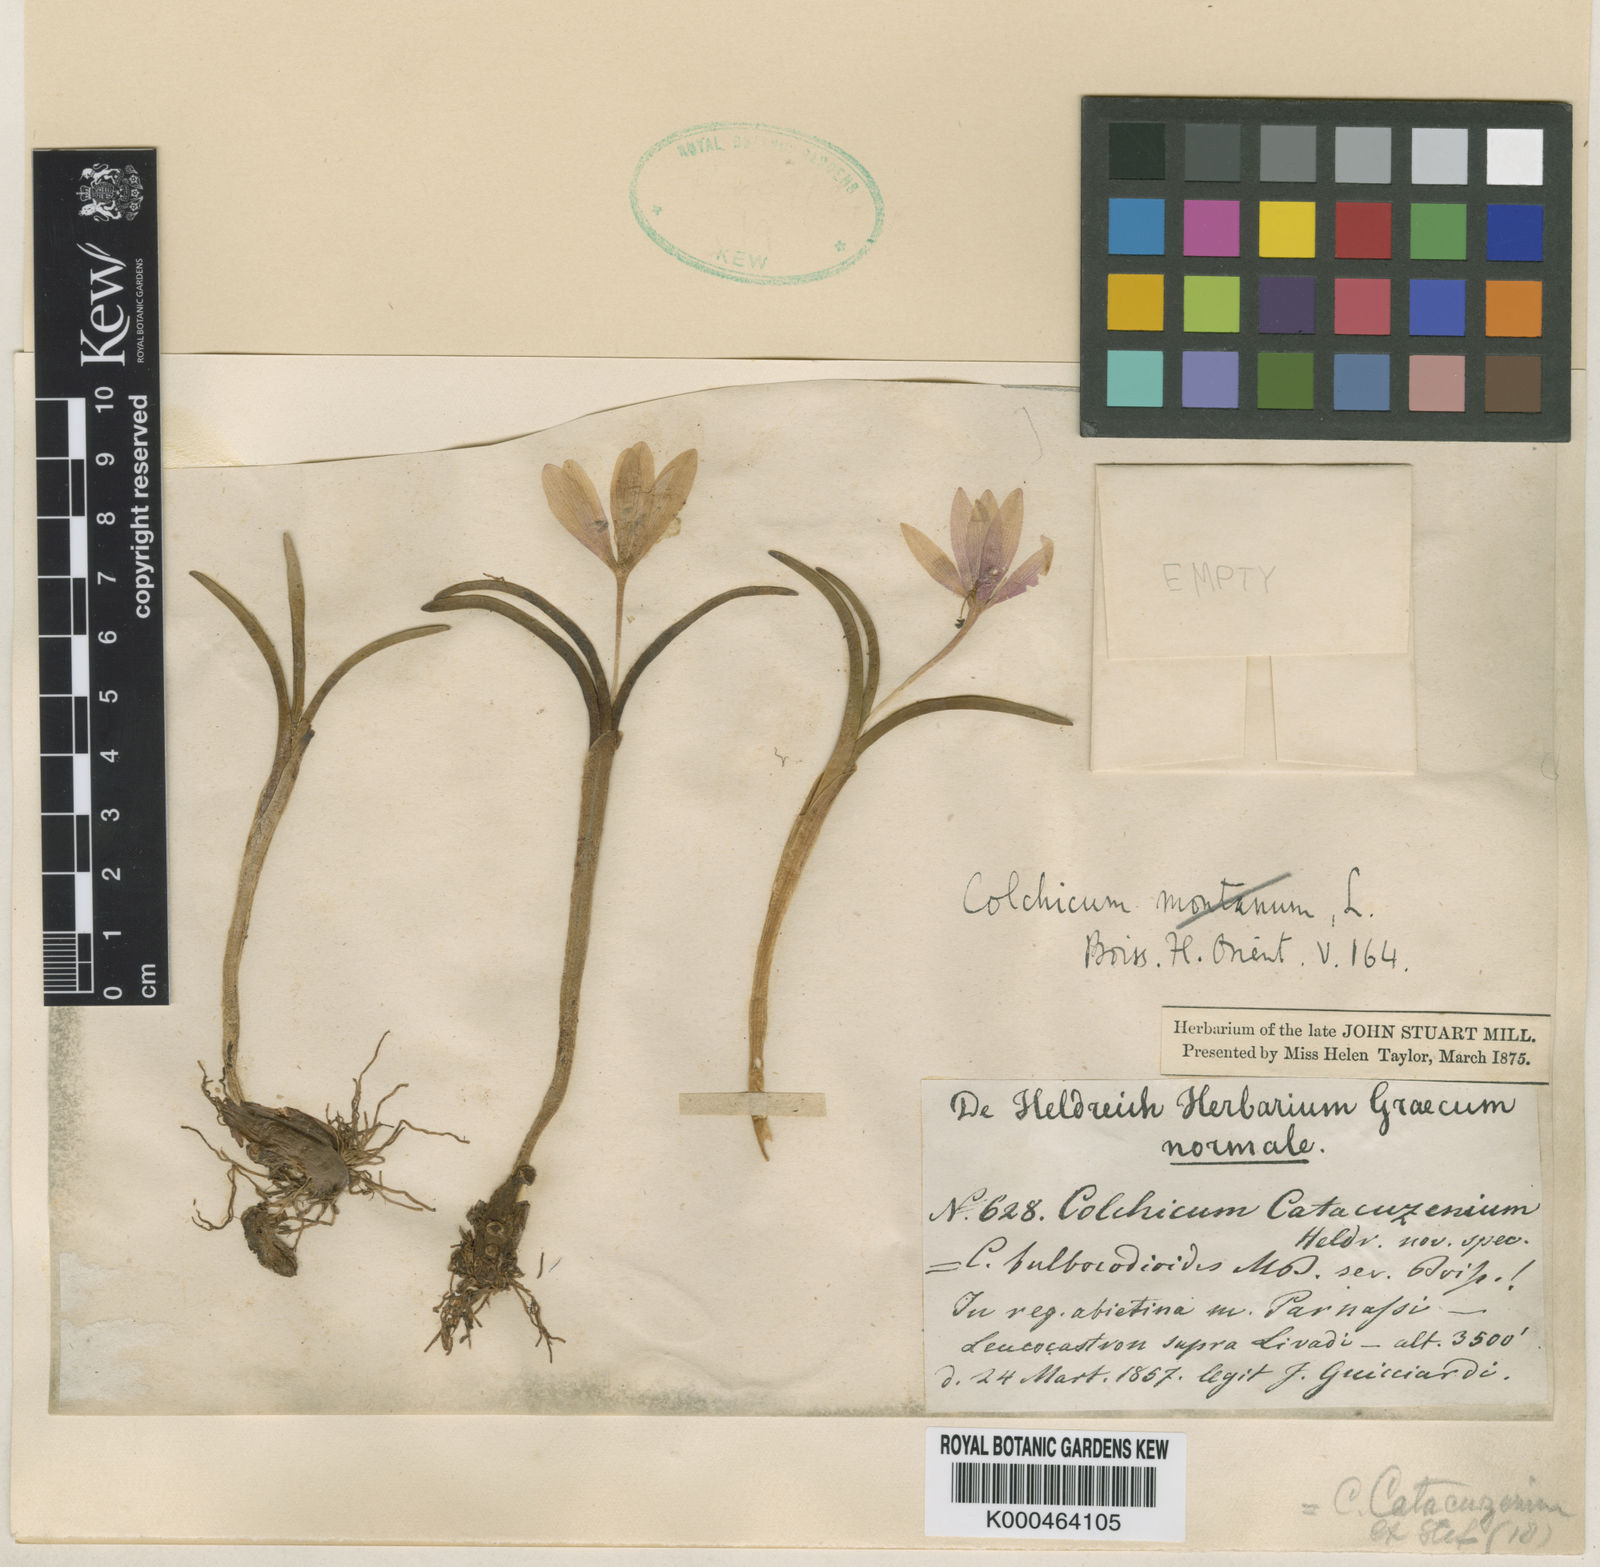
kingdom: Plantae
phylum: Tracheophyta
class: Liliopsida
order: Liliales
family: Colchicaceae
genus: Colchicum
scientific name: Colchicum triphyllum
